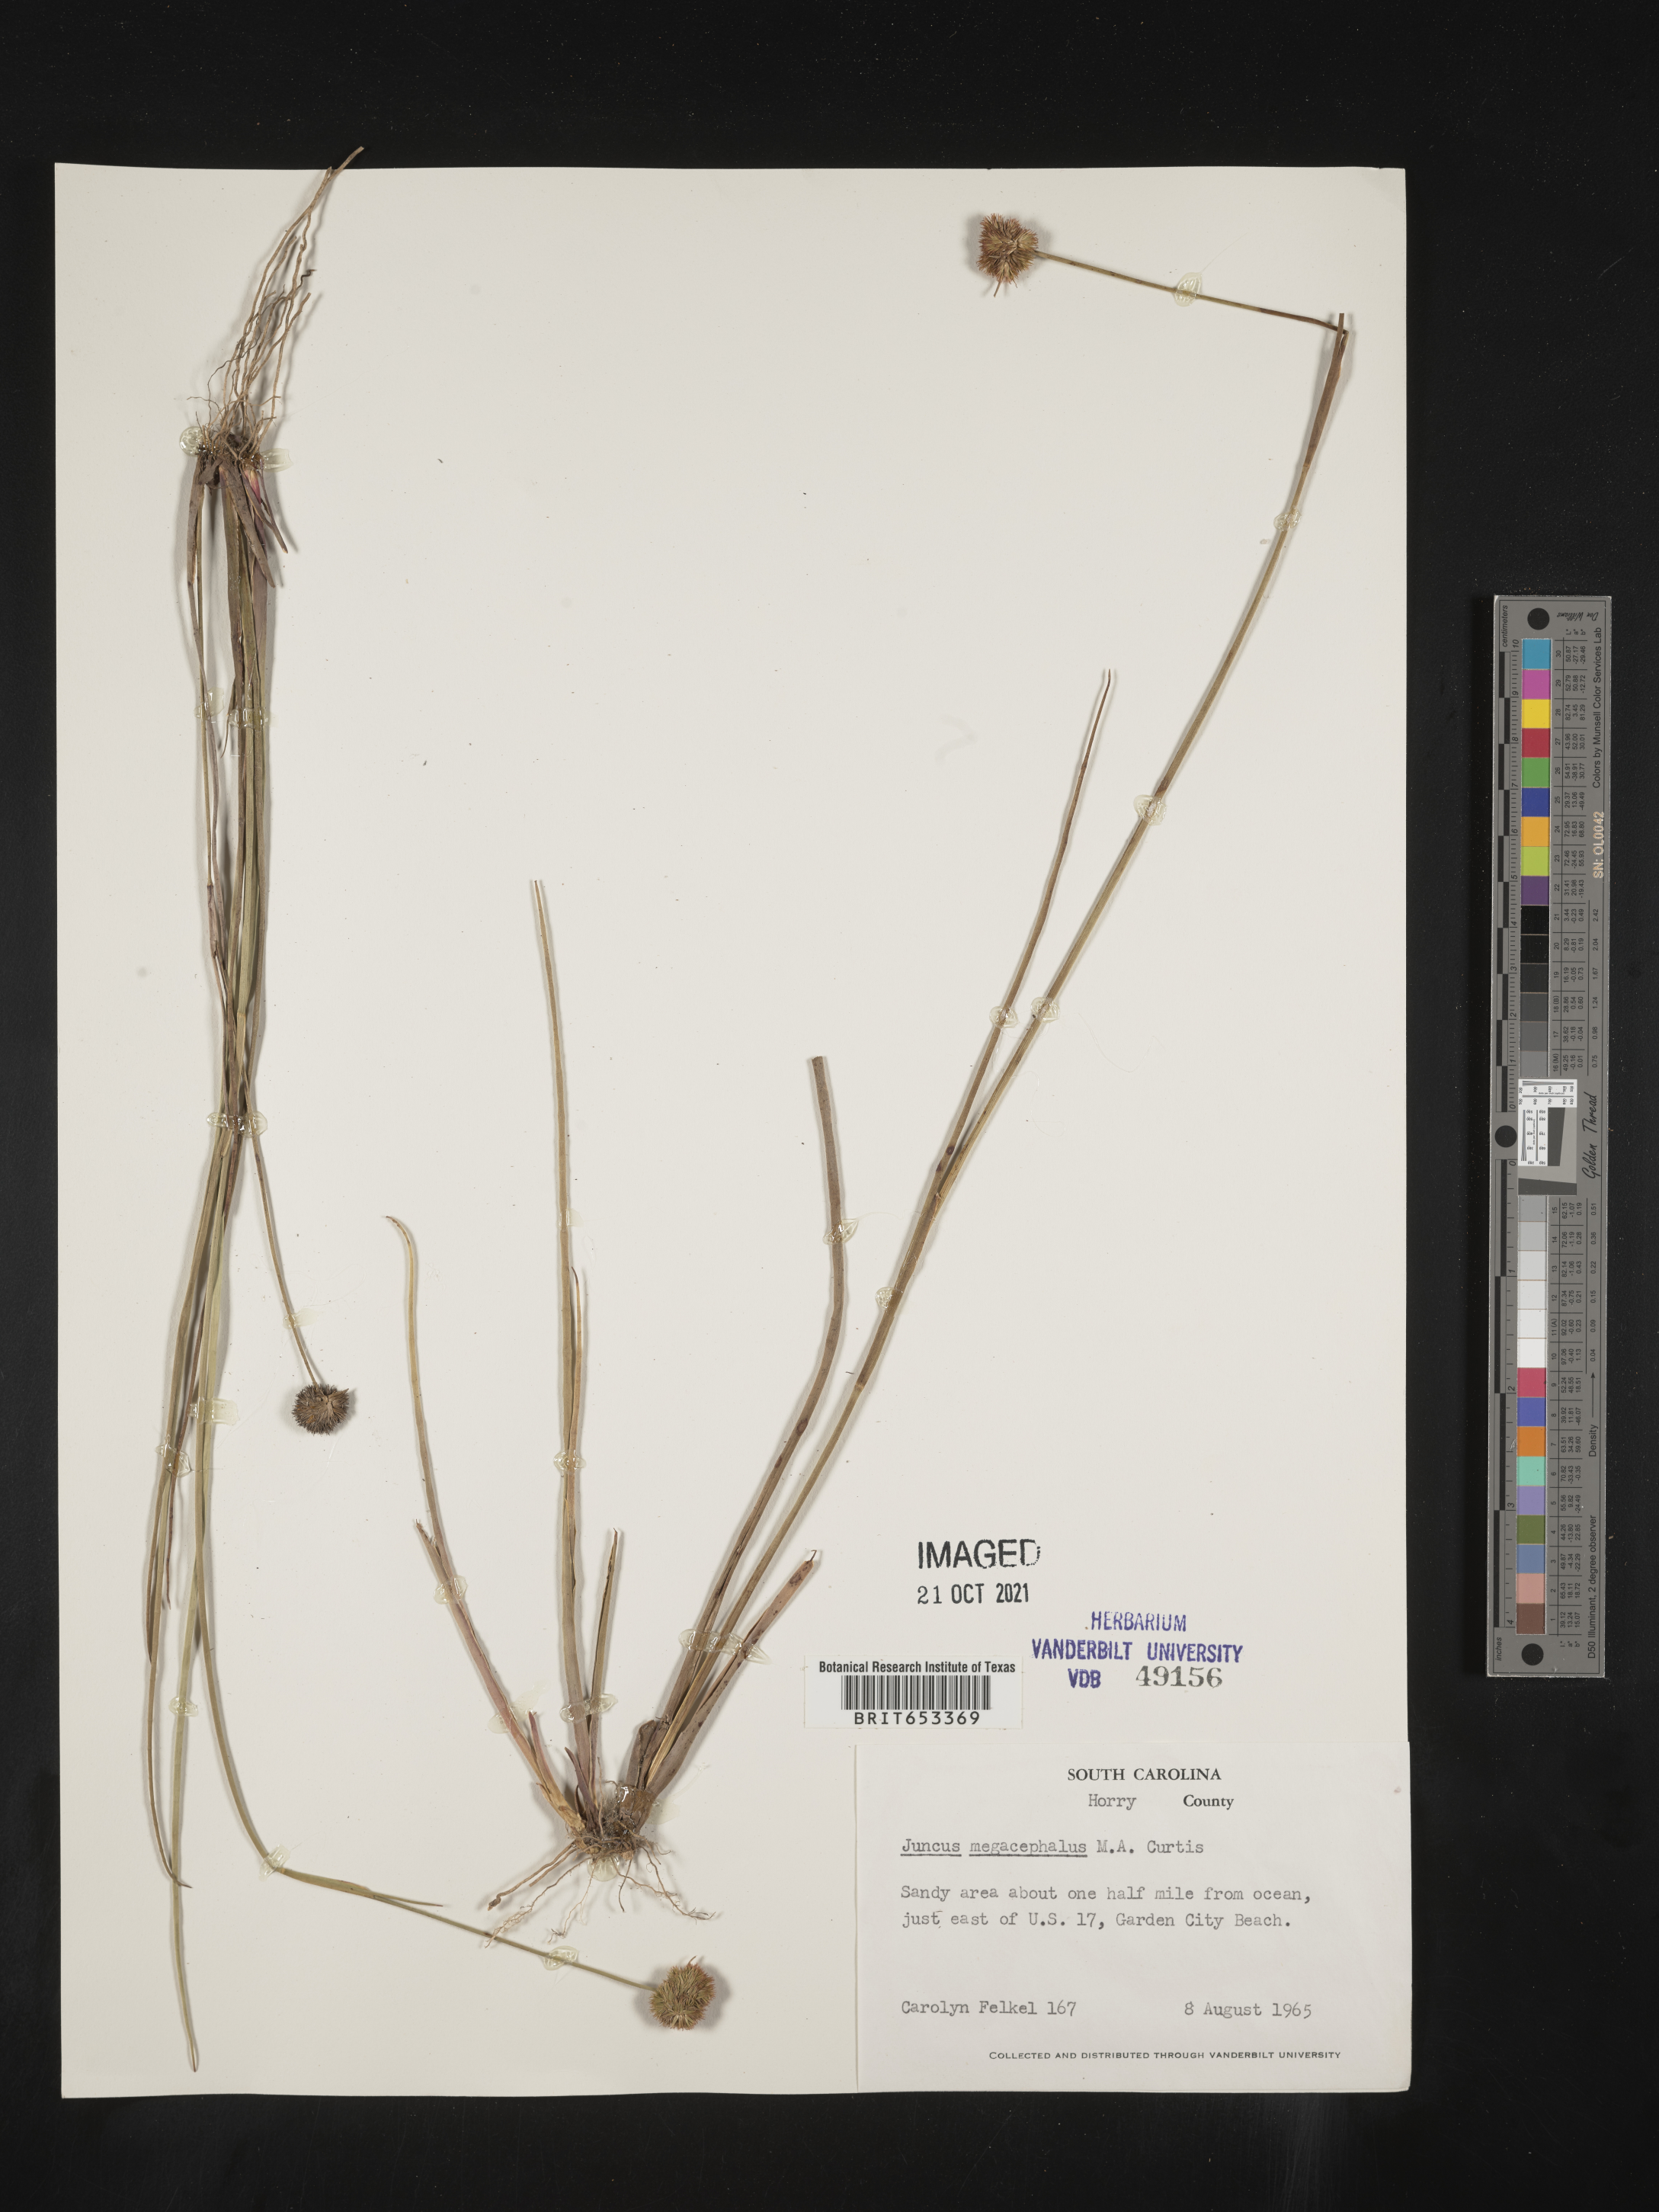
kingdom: Plantae
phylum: Tracheophyta
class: Liliopsida
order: Poales
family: Juncaceae
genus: Juncus
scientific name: Juncus megacephalus
